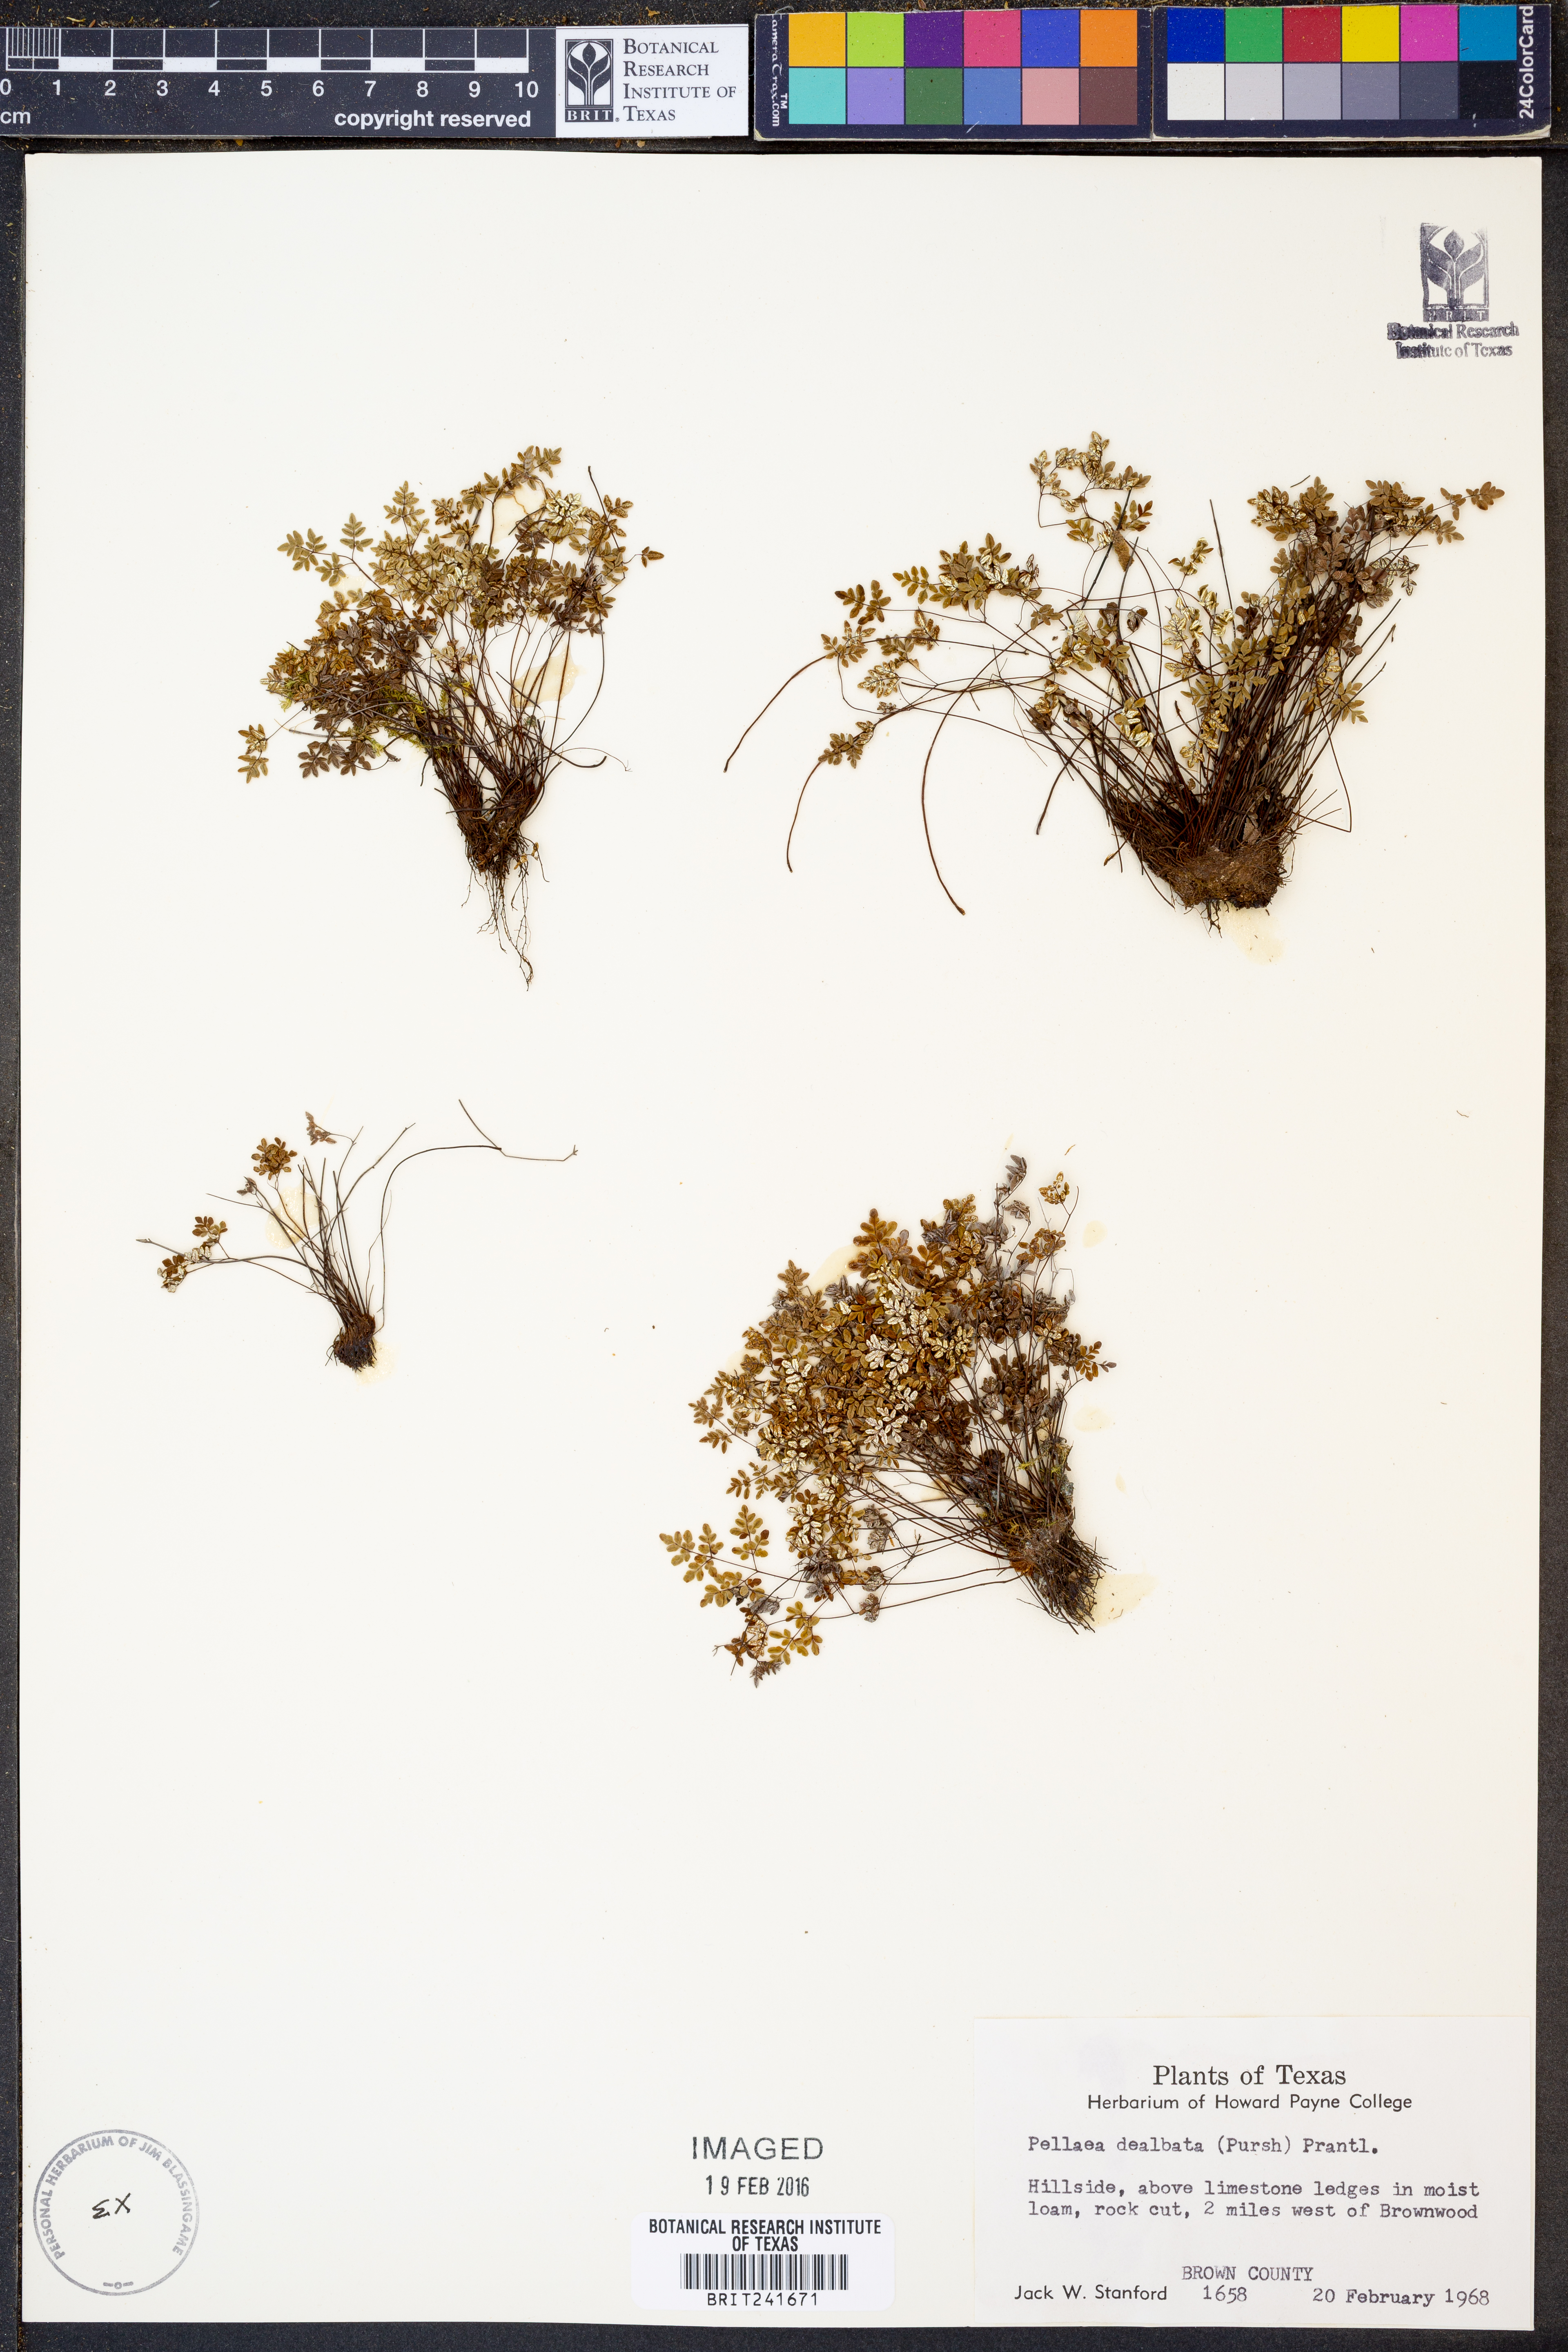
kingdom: Plantae
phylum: Tracheophyta
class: Polypodiopsida
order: Polypodiales
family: Pteridaceae
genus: Argyrochosma
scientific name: Argyrochosma dealbata
